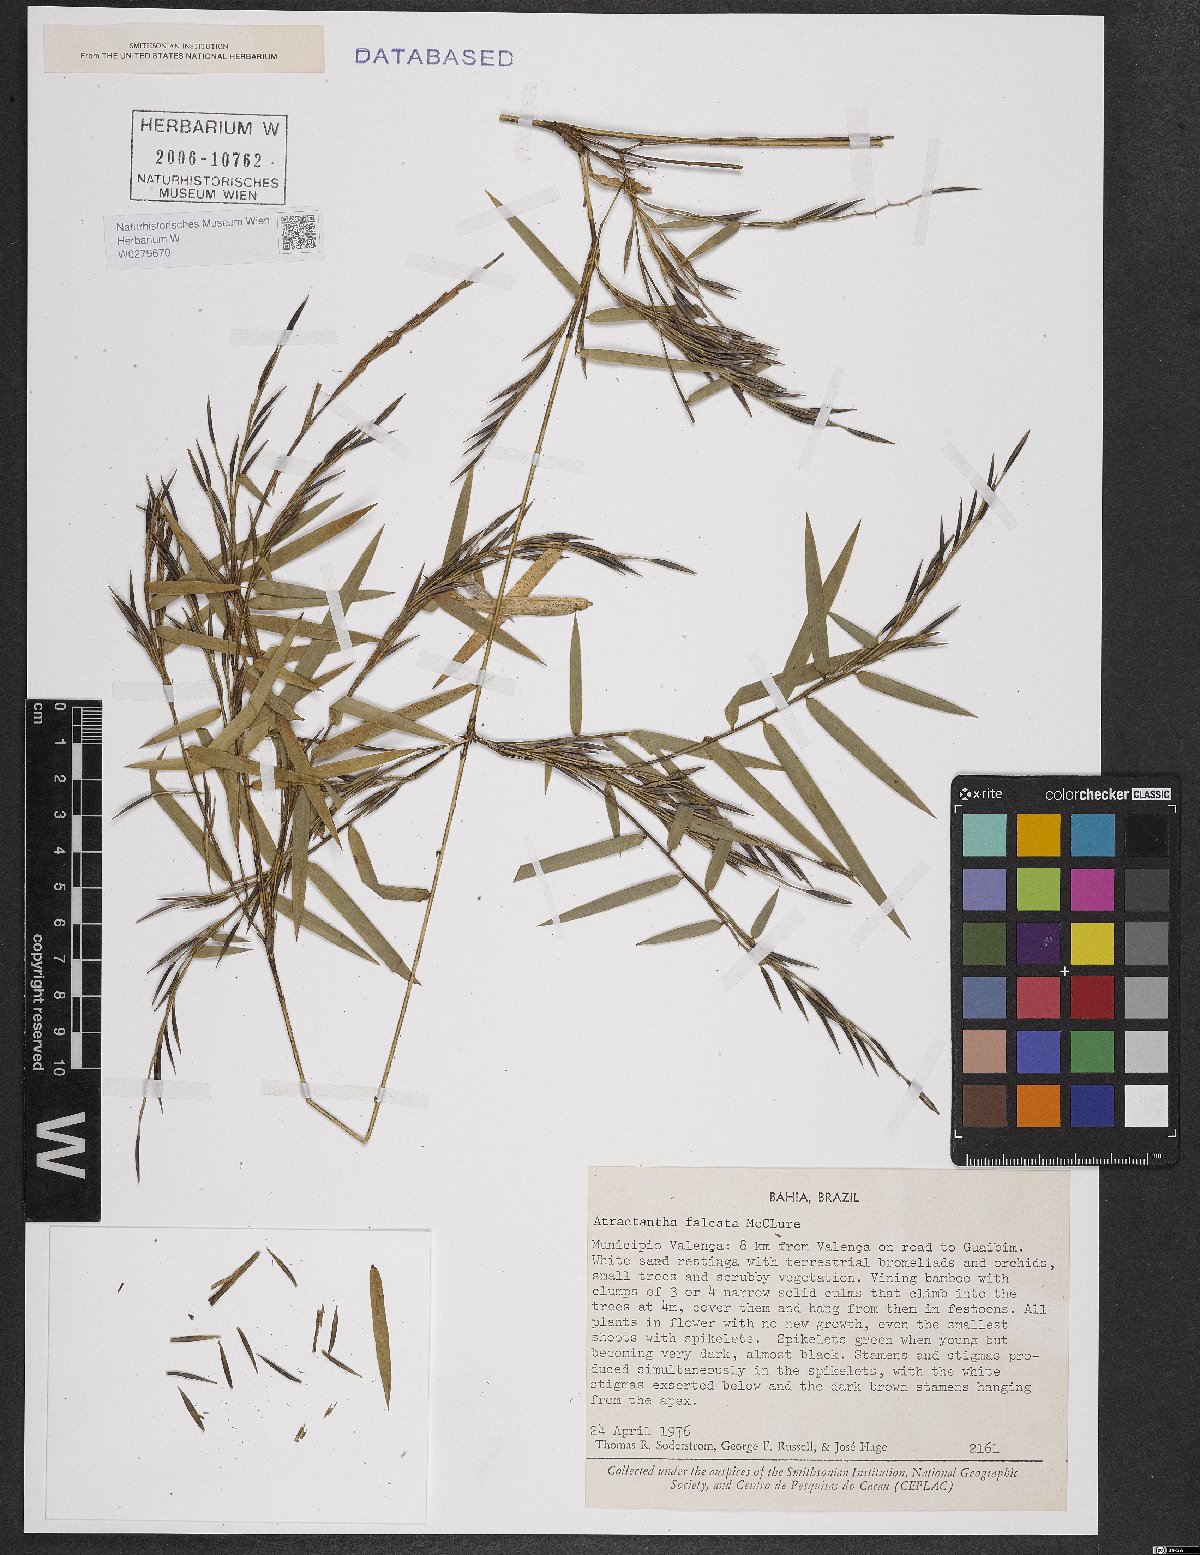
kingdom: Plantae
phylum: Tracheophyta
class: Liliopsida
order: Poales
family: Poaceae
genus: Atractantha
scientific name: Atractantha falcata
